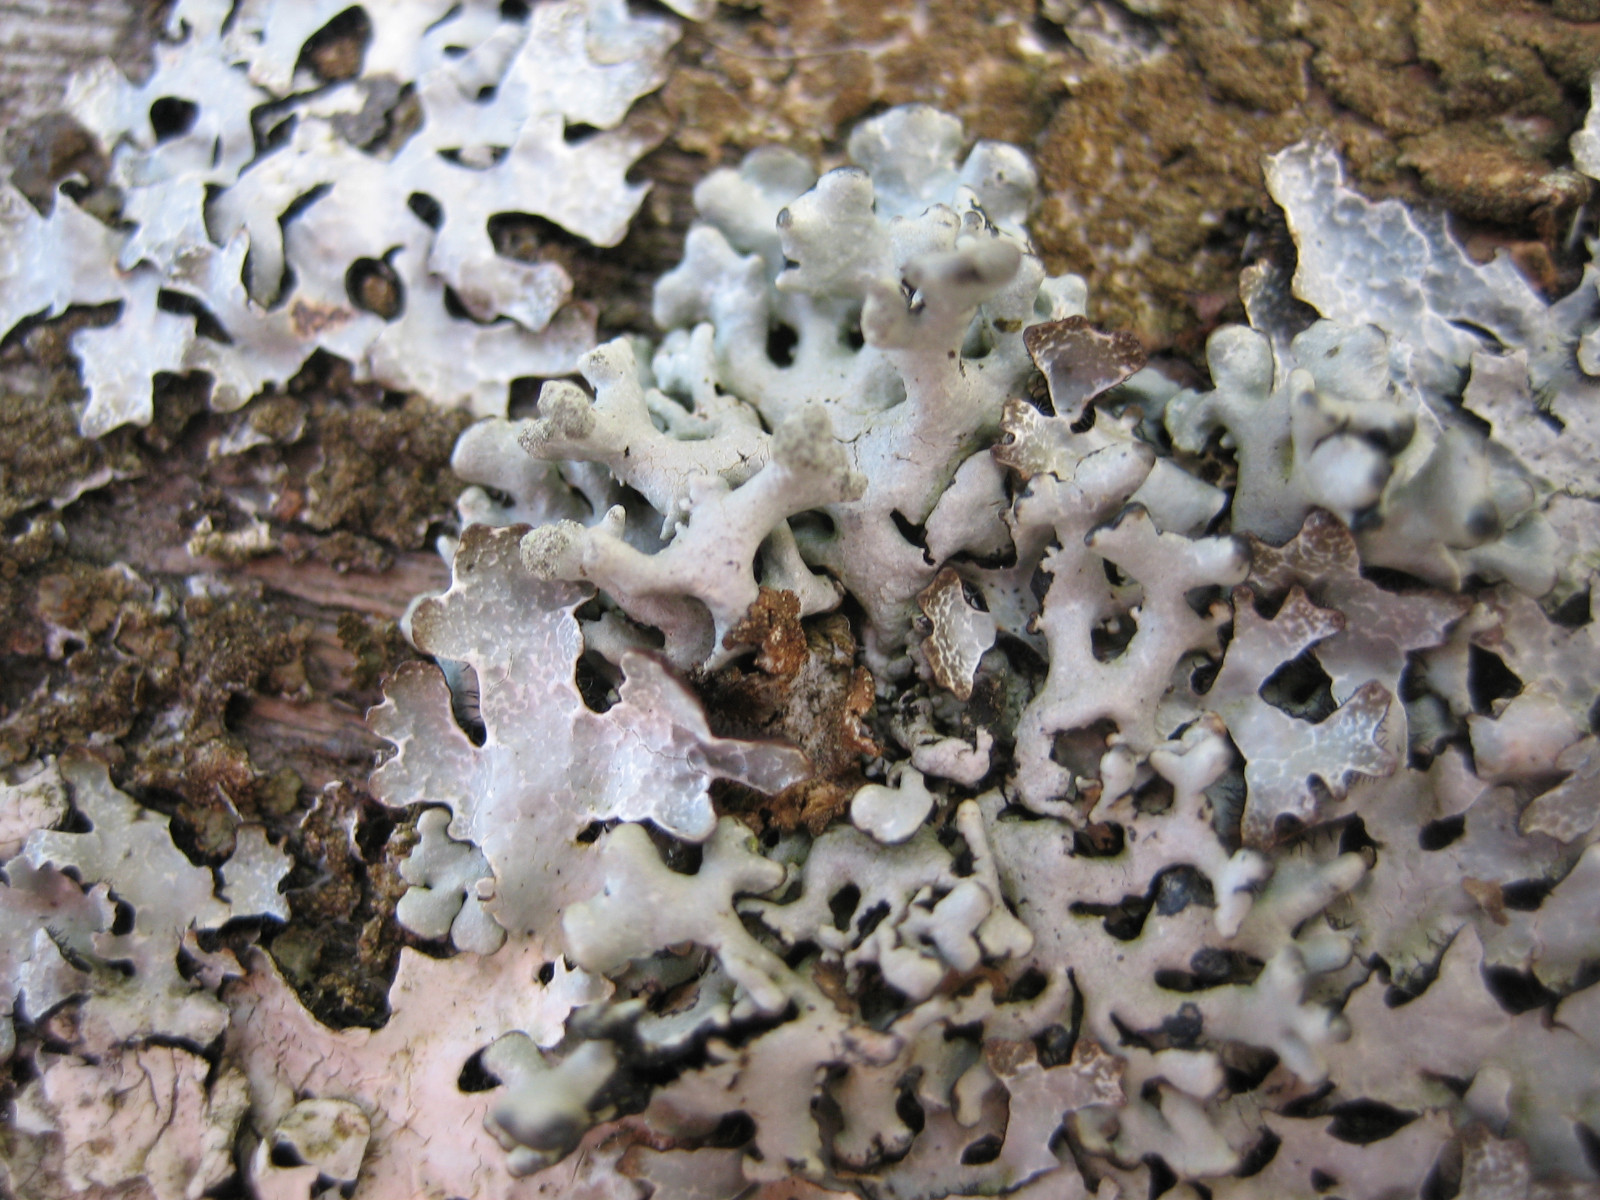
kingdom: Fungi
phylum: Ascomycota
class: Lecanoromycetes
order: Lecanorales
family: Parmeliaceae
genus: Hypogymnia
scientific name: Hypogymnia tubulosa
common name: finger-kvistlav
